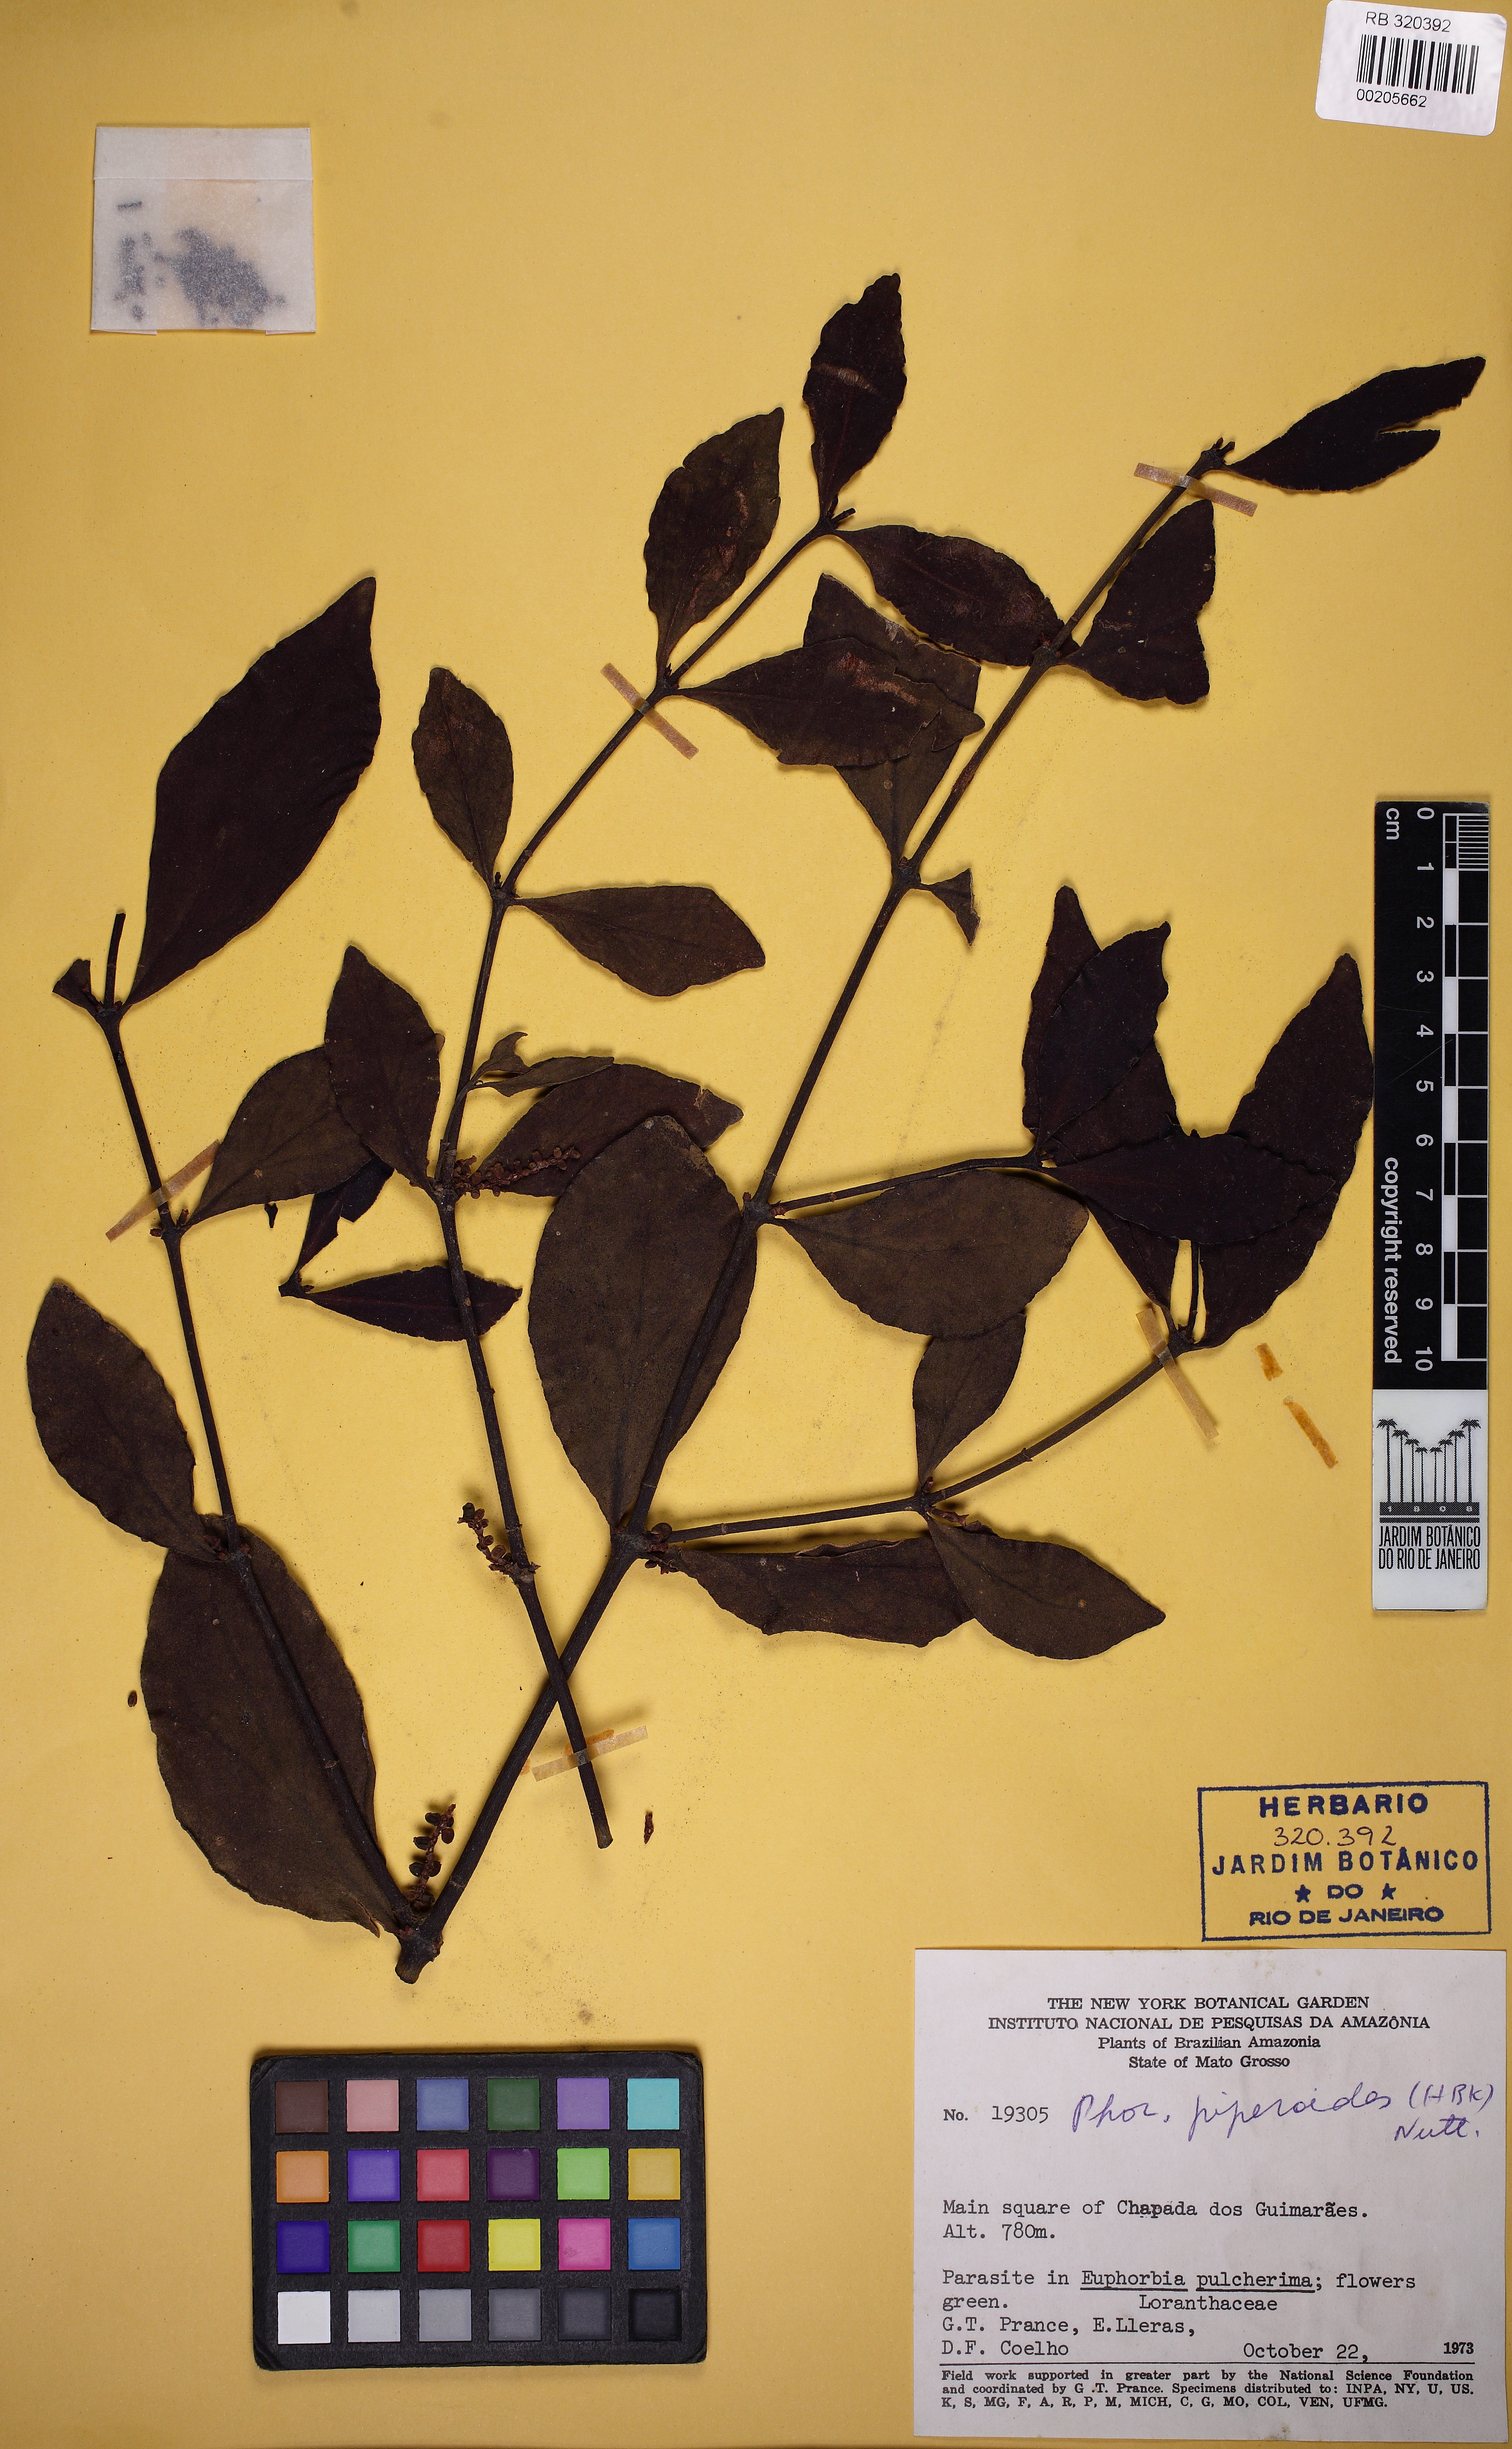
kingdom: Plantae
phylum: Tracheophyta
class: Magnoliopsida
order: Santalales
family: Viscaceae
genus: Phoradendron
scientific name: Phoradendron piperoides
